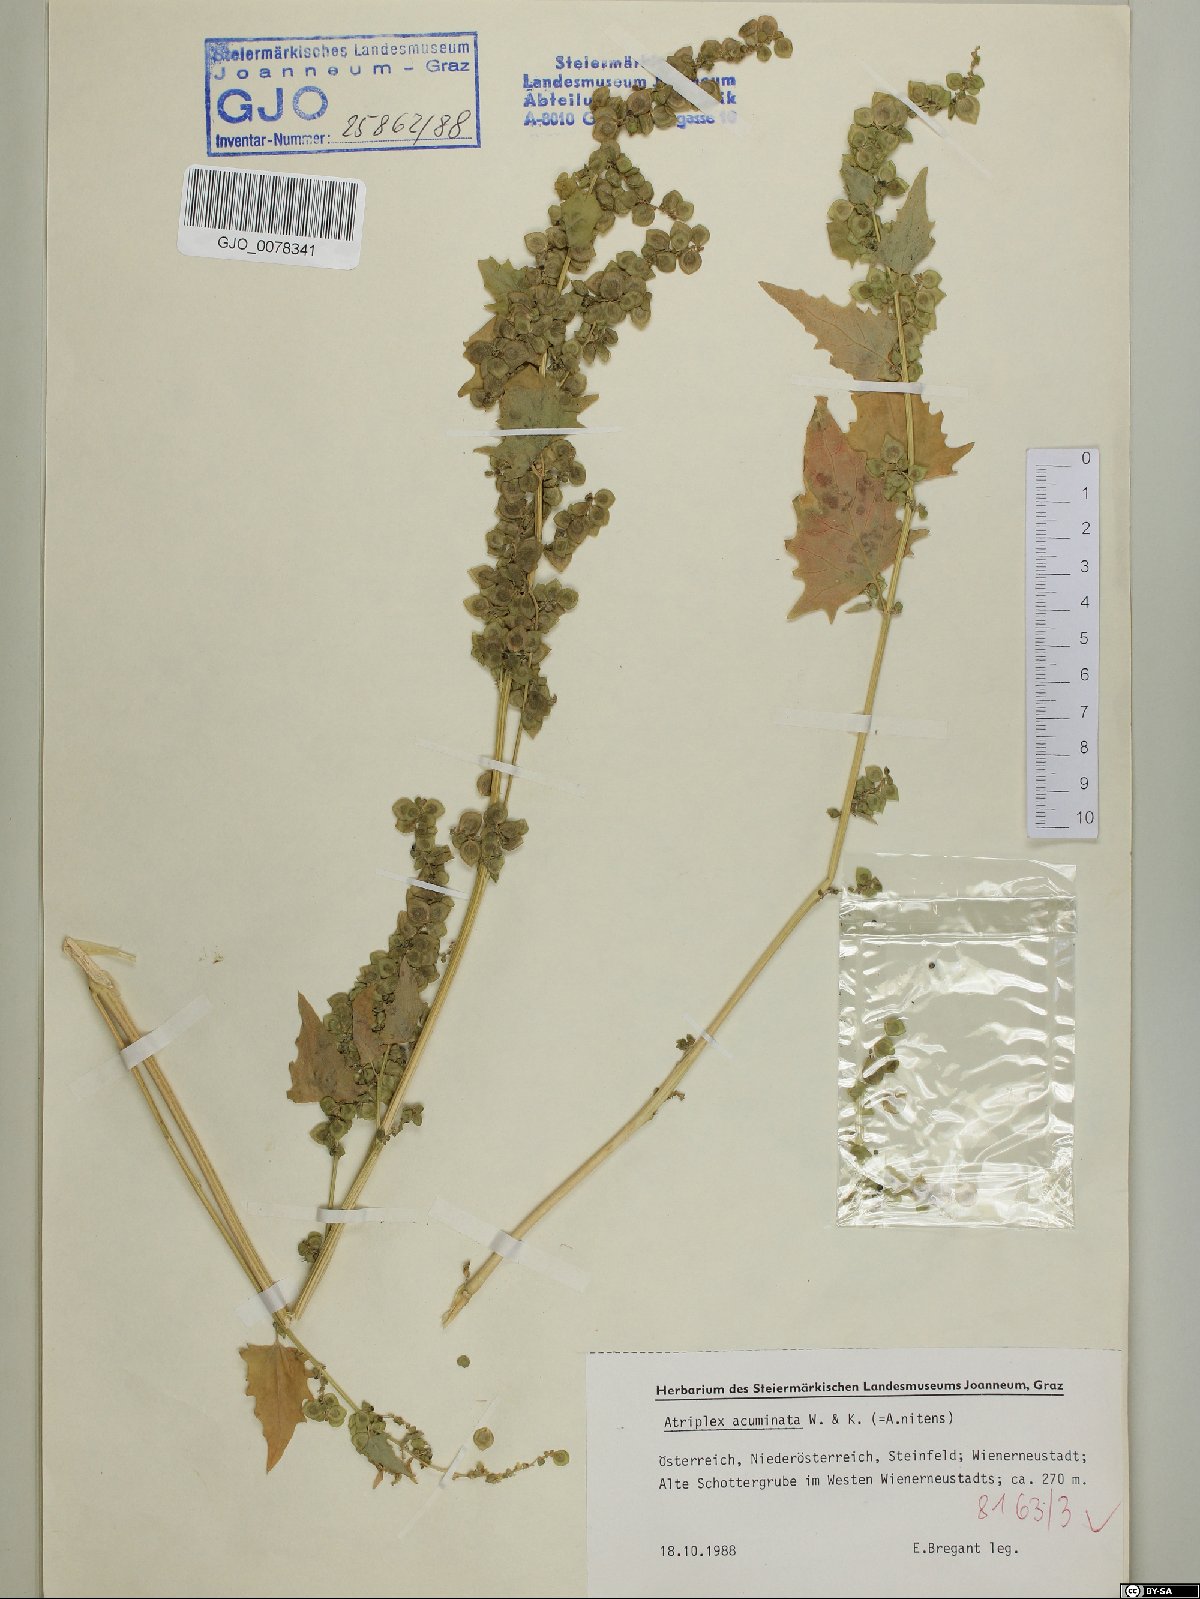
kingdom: Plantae
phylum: Tracheophyta
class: Magnoliopsida
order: Caryophyllales
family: Amaranthaceae
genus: Atriplex
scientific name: Atriplex sagittata
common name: Purple orache
